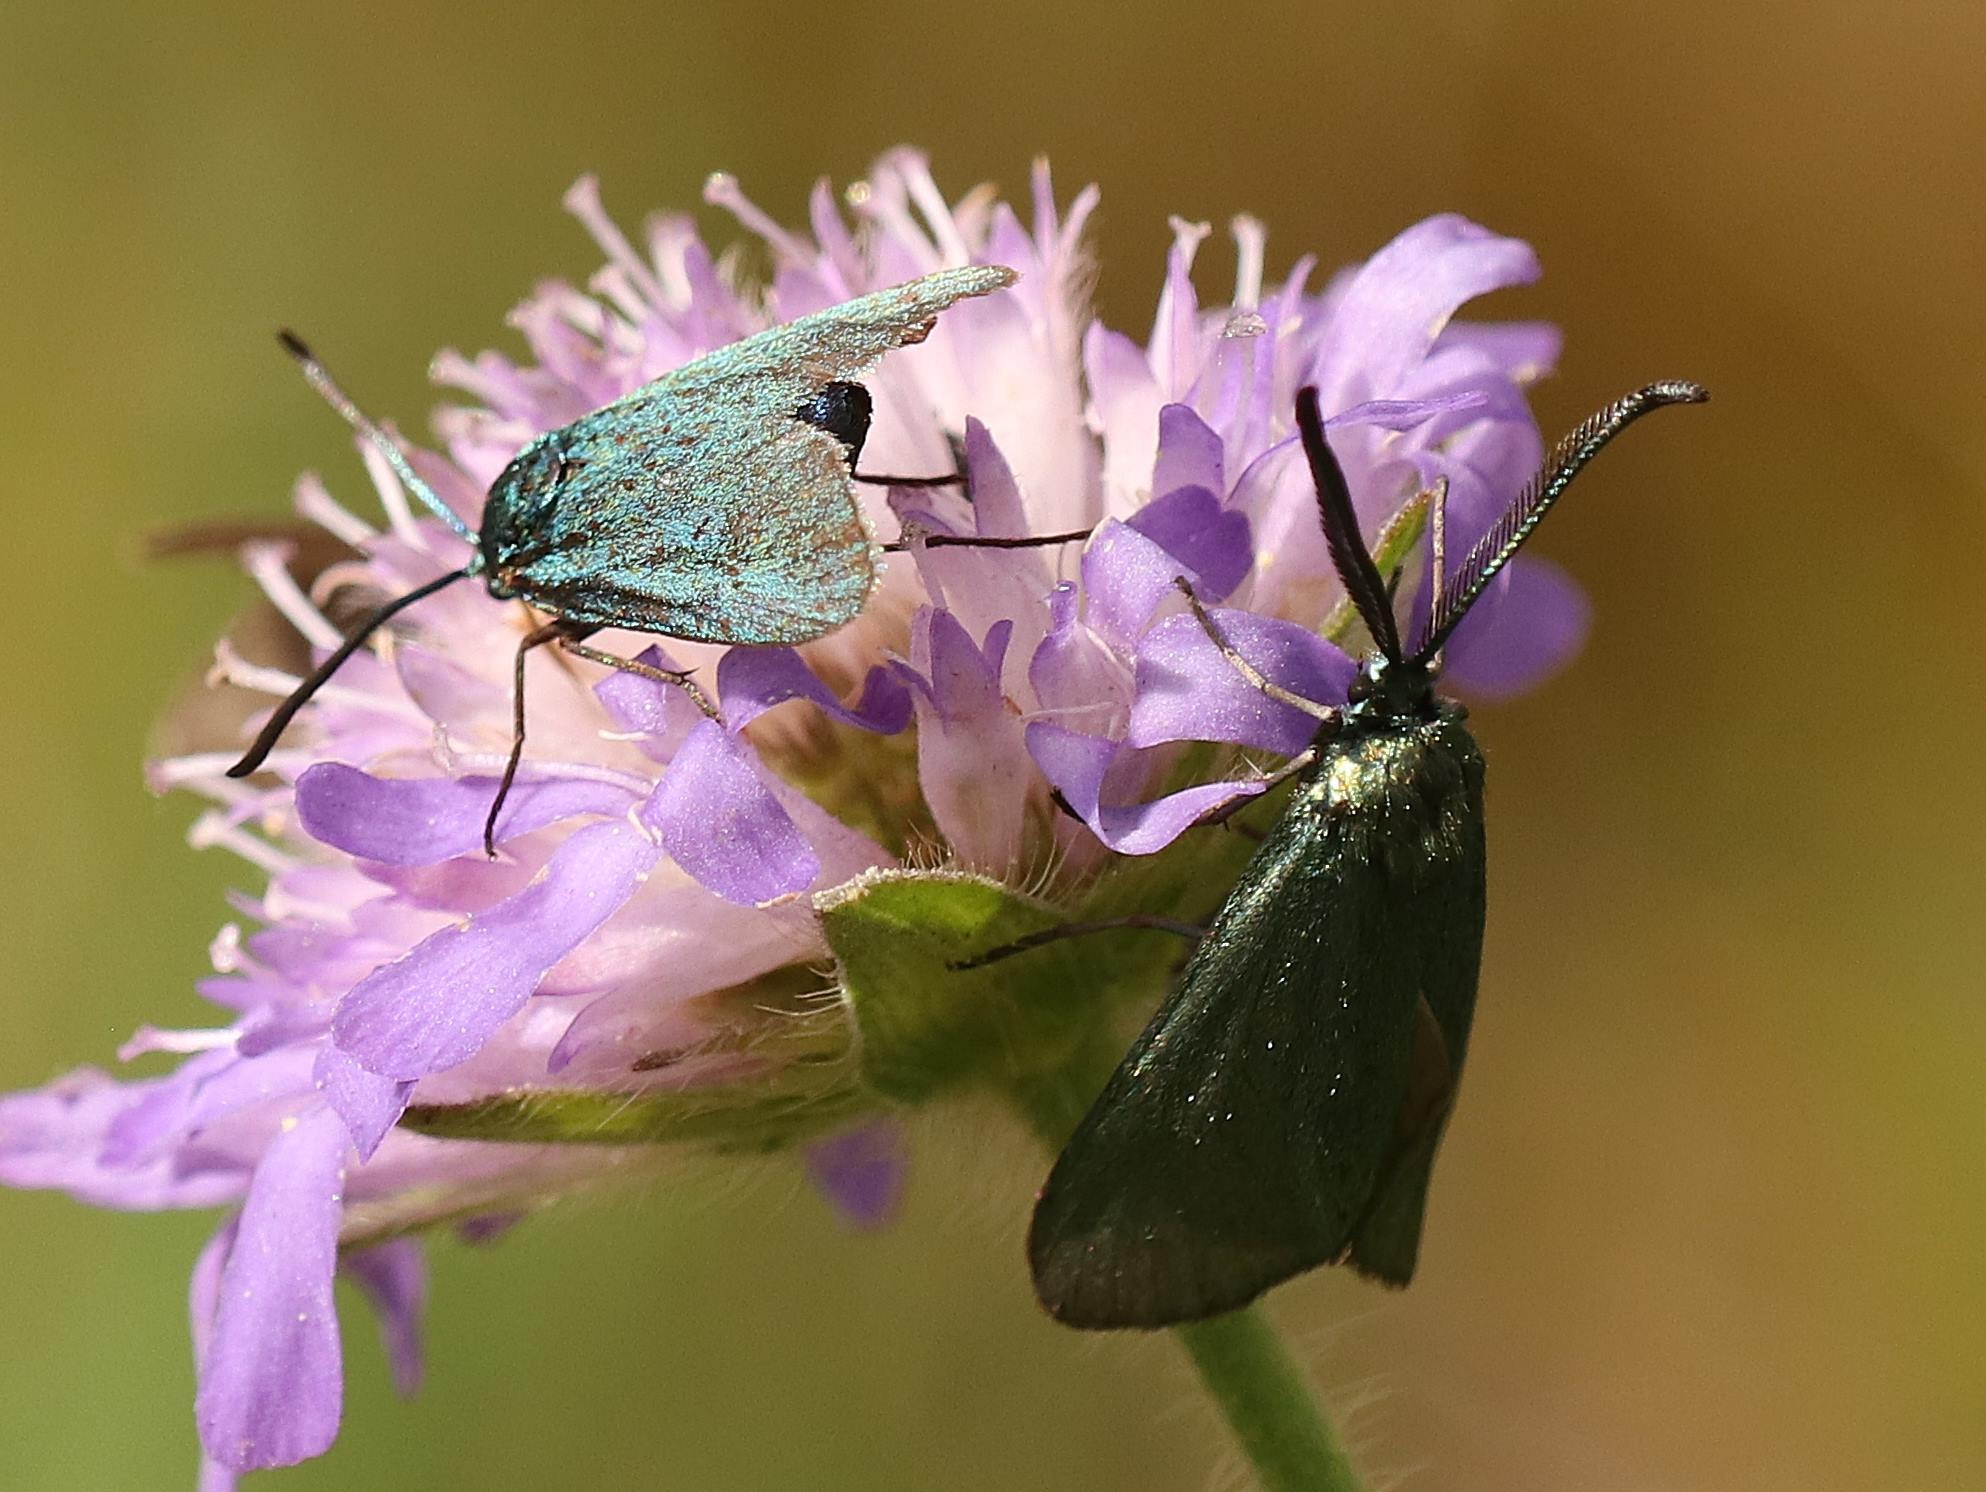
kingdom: Animalia
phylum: Arthropoda
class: Insecta
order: Lepidoptera
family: Zygaenidae
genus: Adscita
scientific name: Adscita statices
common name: Metalvinge
